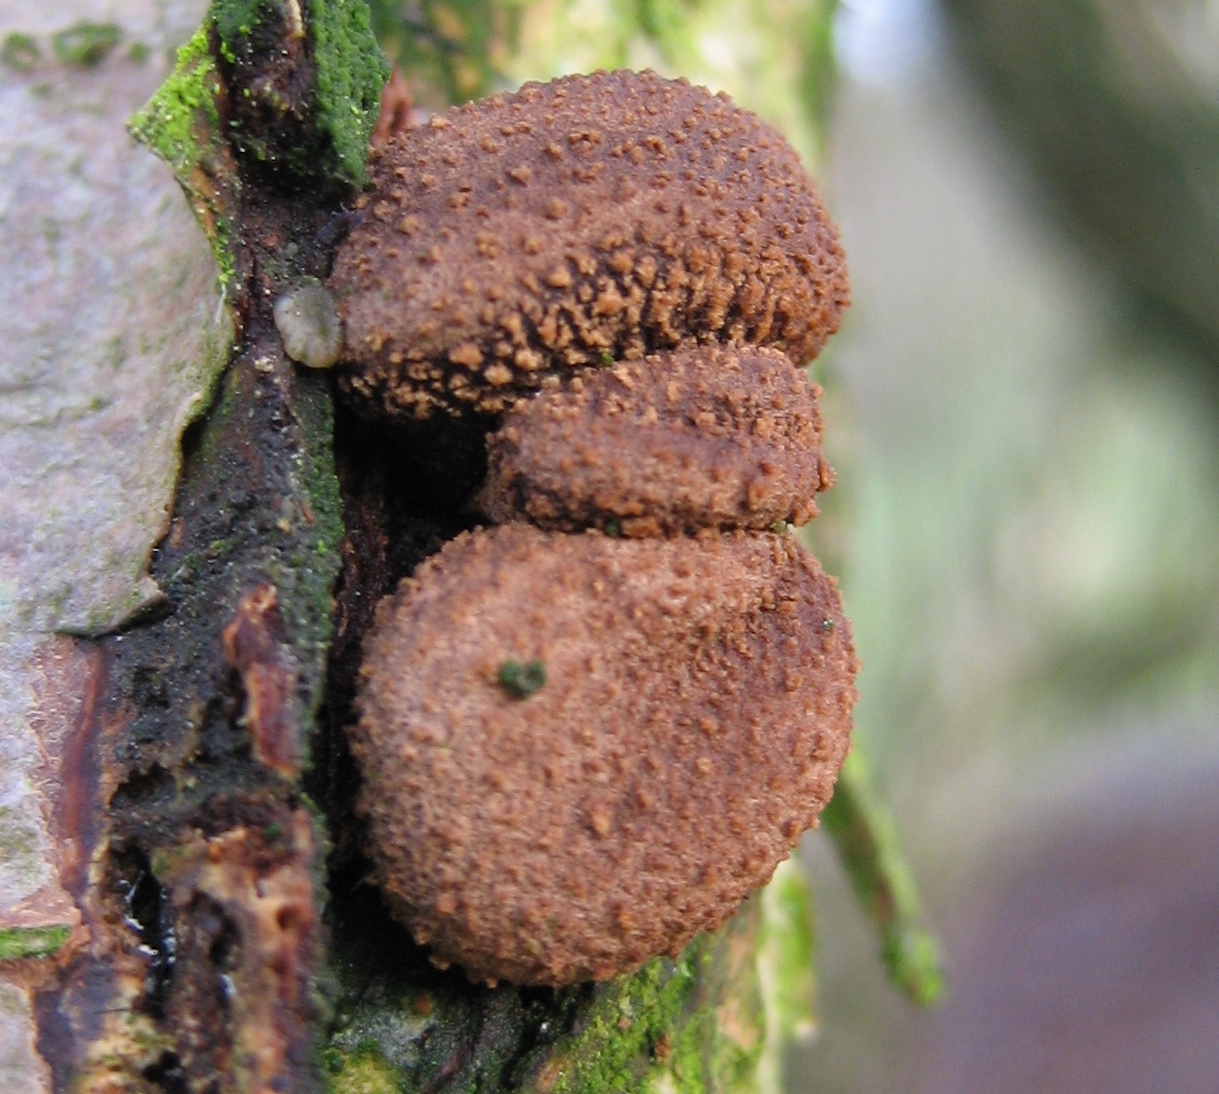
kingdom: Fungi
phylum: Ascomycota
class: Leotiomycetes
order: Helotiales
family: Cenangiaceae
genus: Encoelia
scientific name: Encoelia furfuracea
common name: hassel-læderskive
